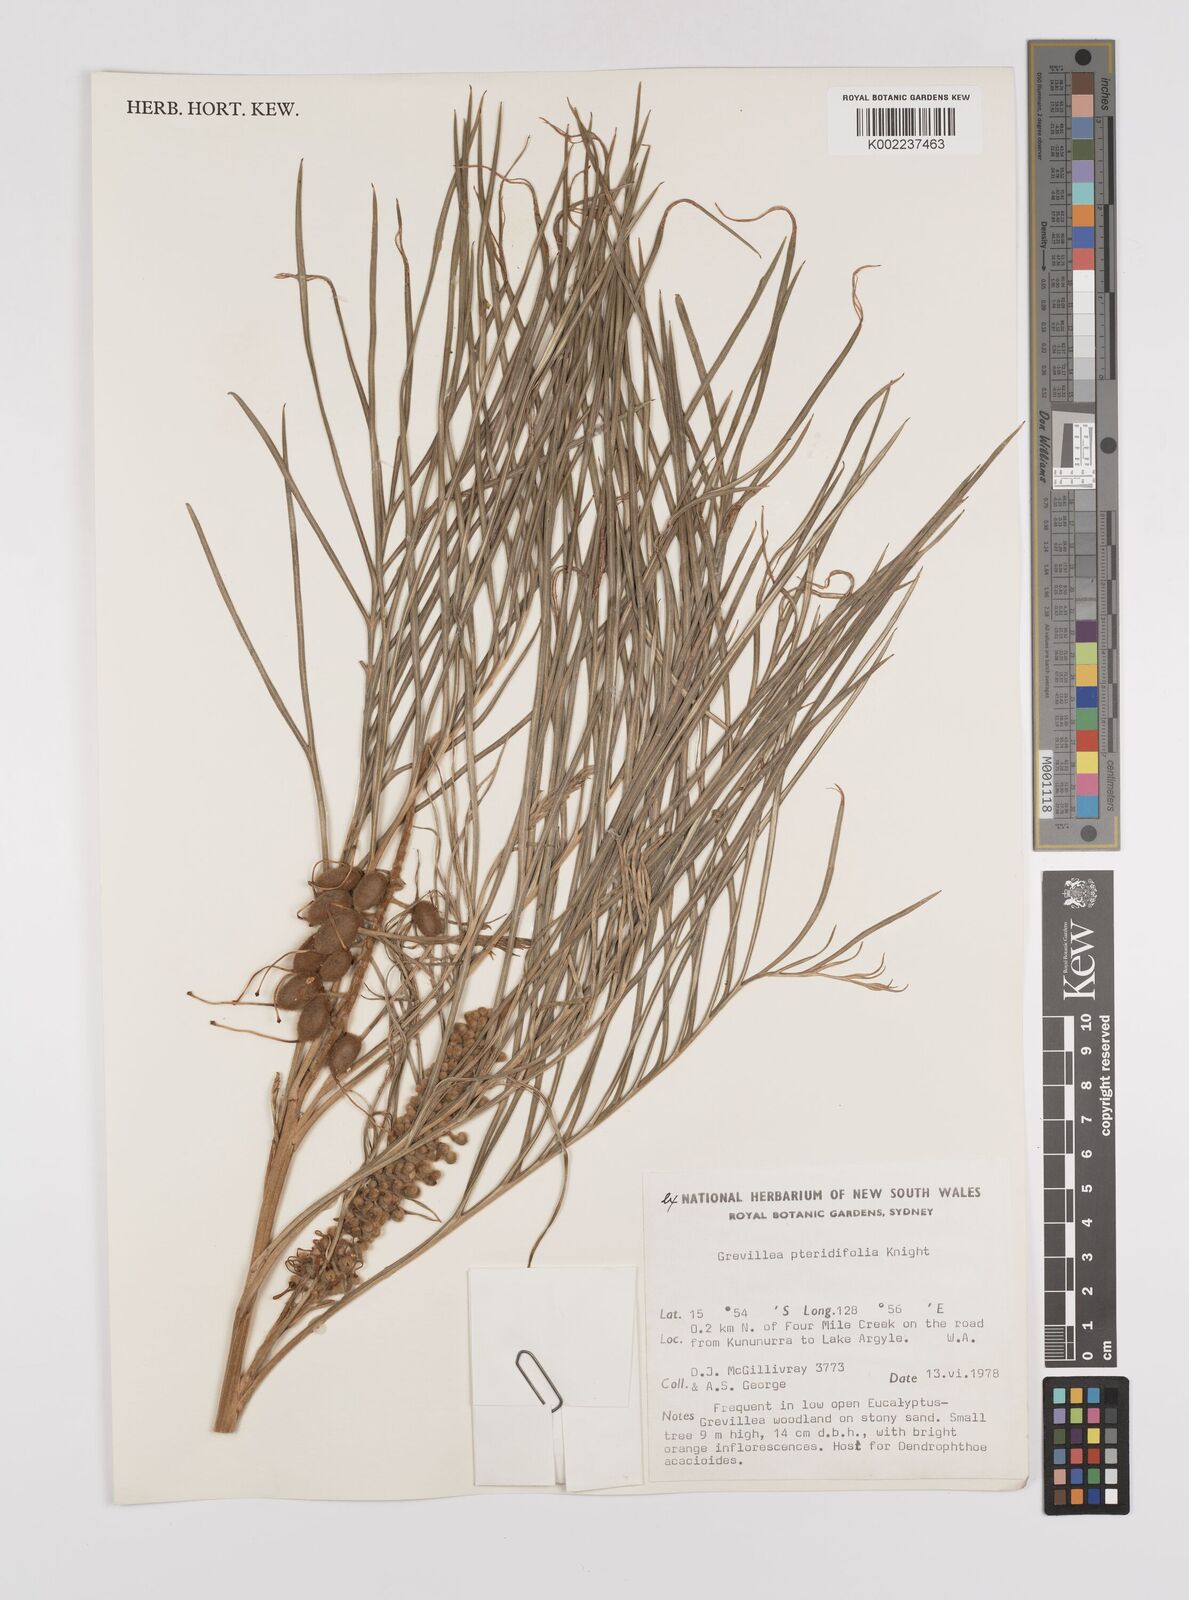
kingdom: Plantae
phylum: Tracheophyta
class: Magnoliopsida
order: Proteales
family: Proteaceae
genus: Grevillea
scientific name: Grevillea pteridifolia
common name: Golden grevillea
